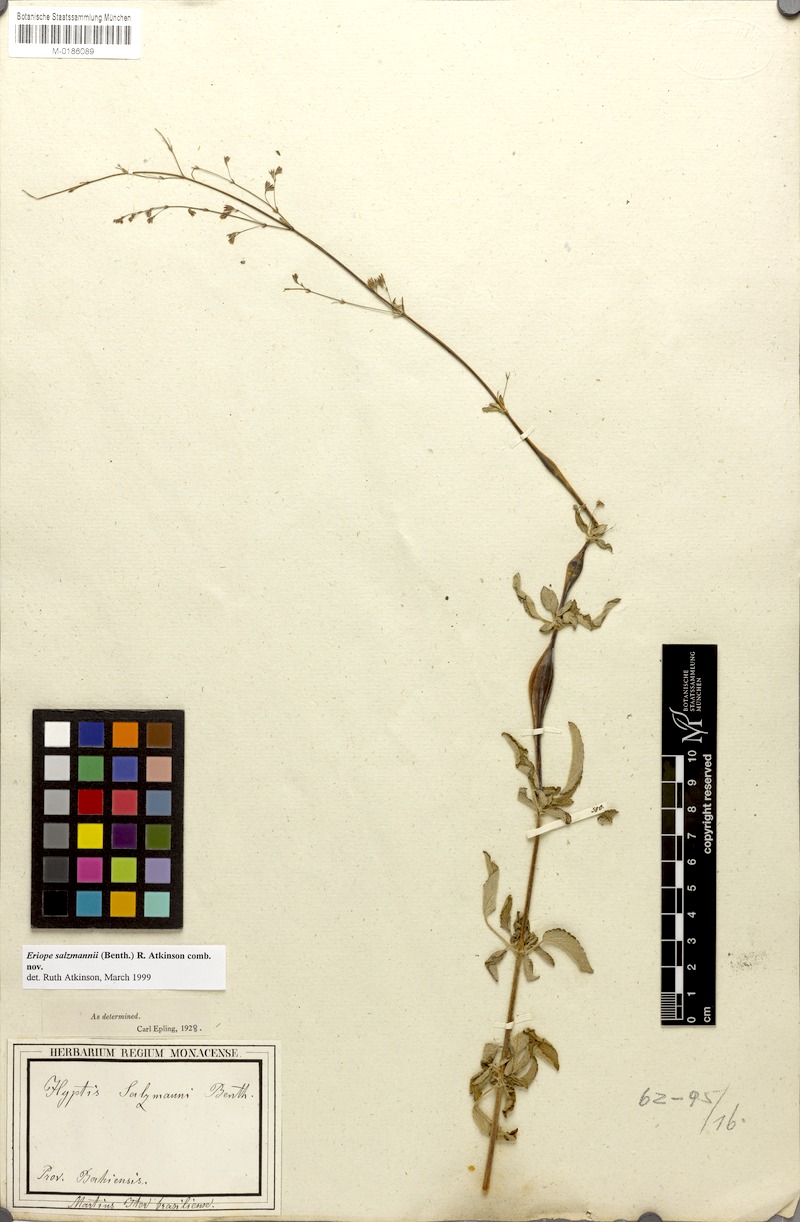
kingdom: Plantae
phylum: Tracheophyta
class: Magnoliopsida
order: Lamiales
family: Lamiaceae
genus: Hypenia
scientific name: Hypenia salzmannii
